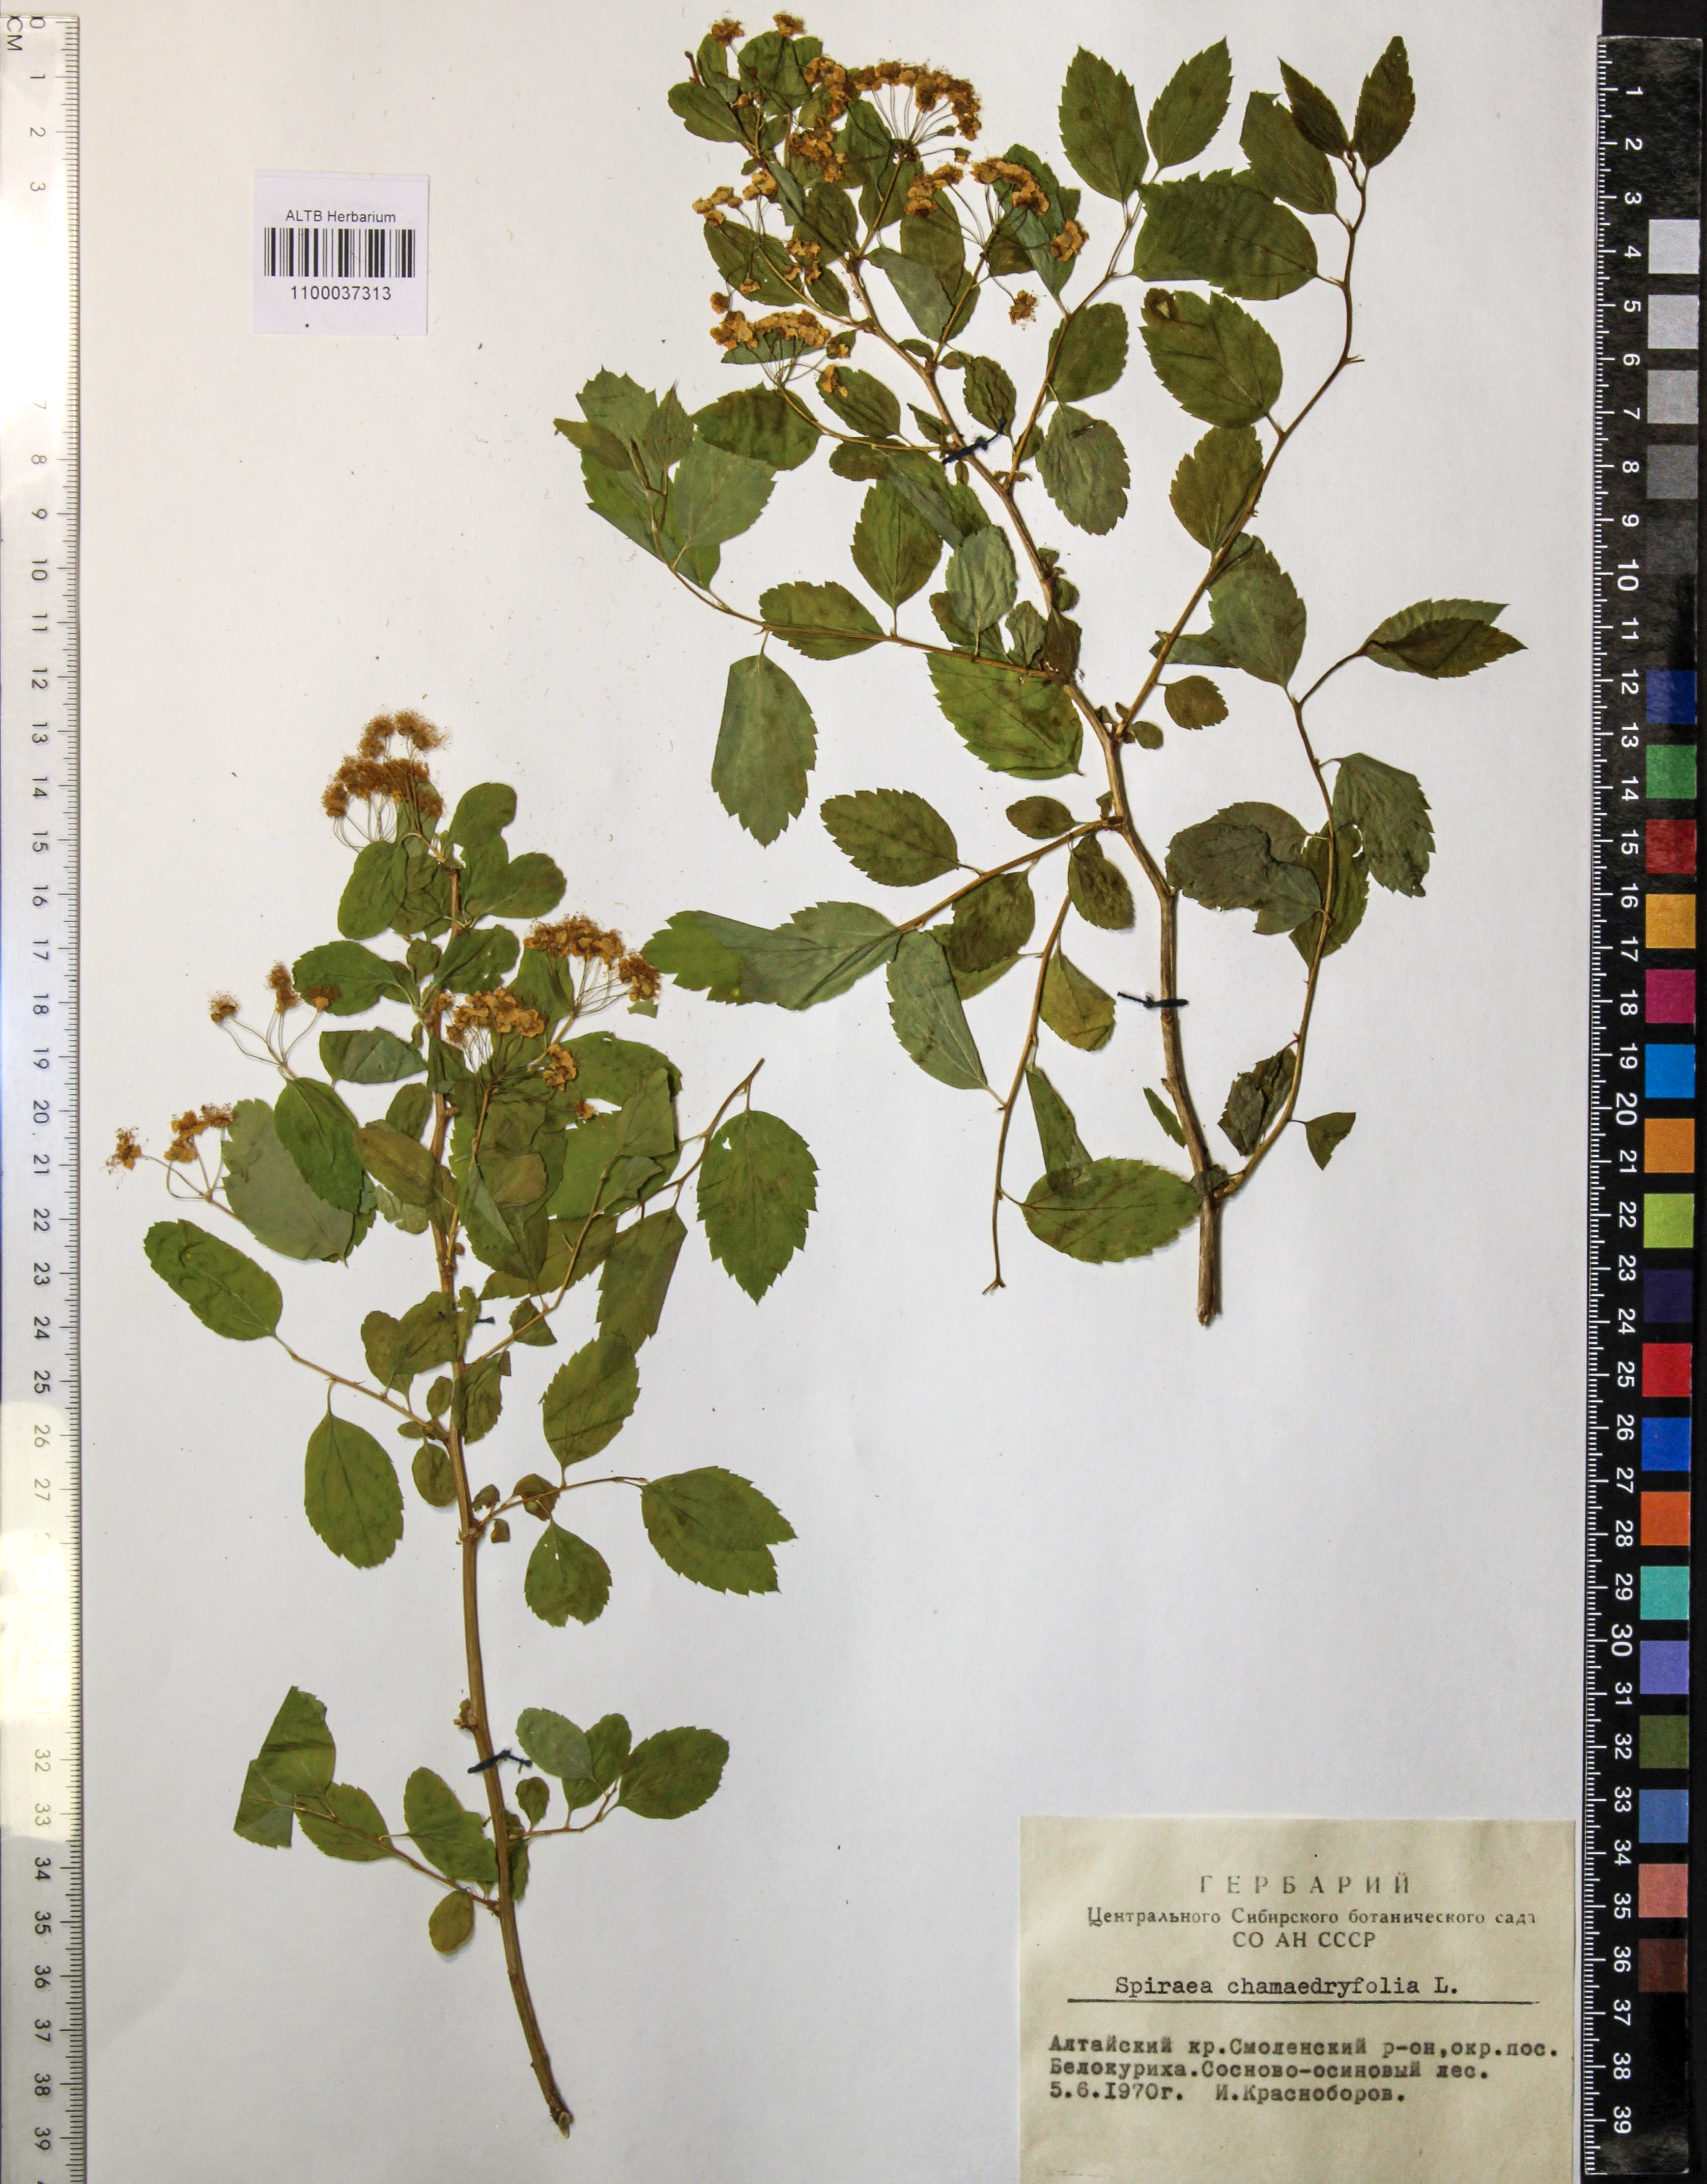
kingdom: Plantae
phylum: Tracheophyta
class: Magnoliopsida
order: Rosales
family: Rosaceae
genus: Spiraea
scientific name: Spiraea chamaedryfolia
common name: Elm-leaved spiraea
